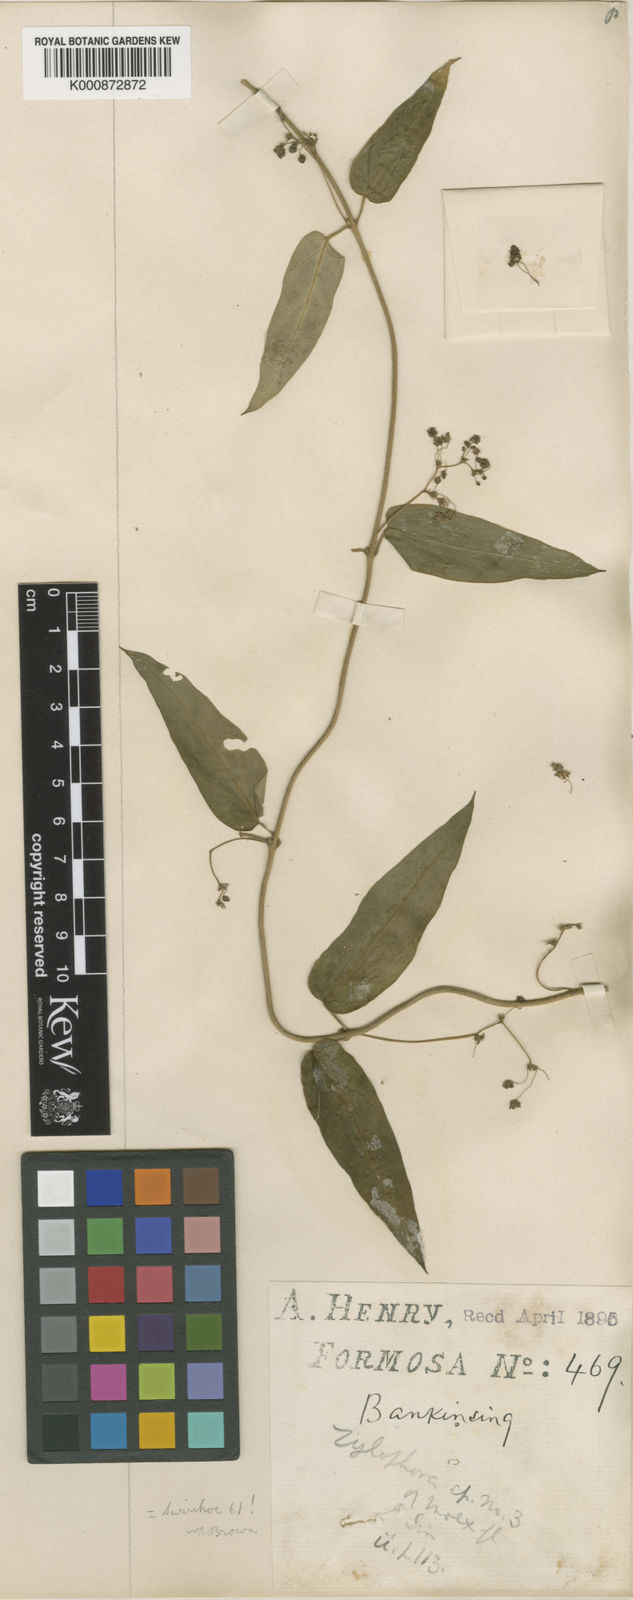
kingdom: Plantae
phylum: Tracheophyta
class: Magnoliopsida
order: Gentianales
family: Apocynaceae
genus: Vincetoxicum
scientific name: Vincetoxicum insulicola
